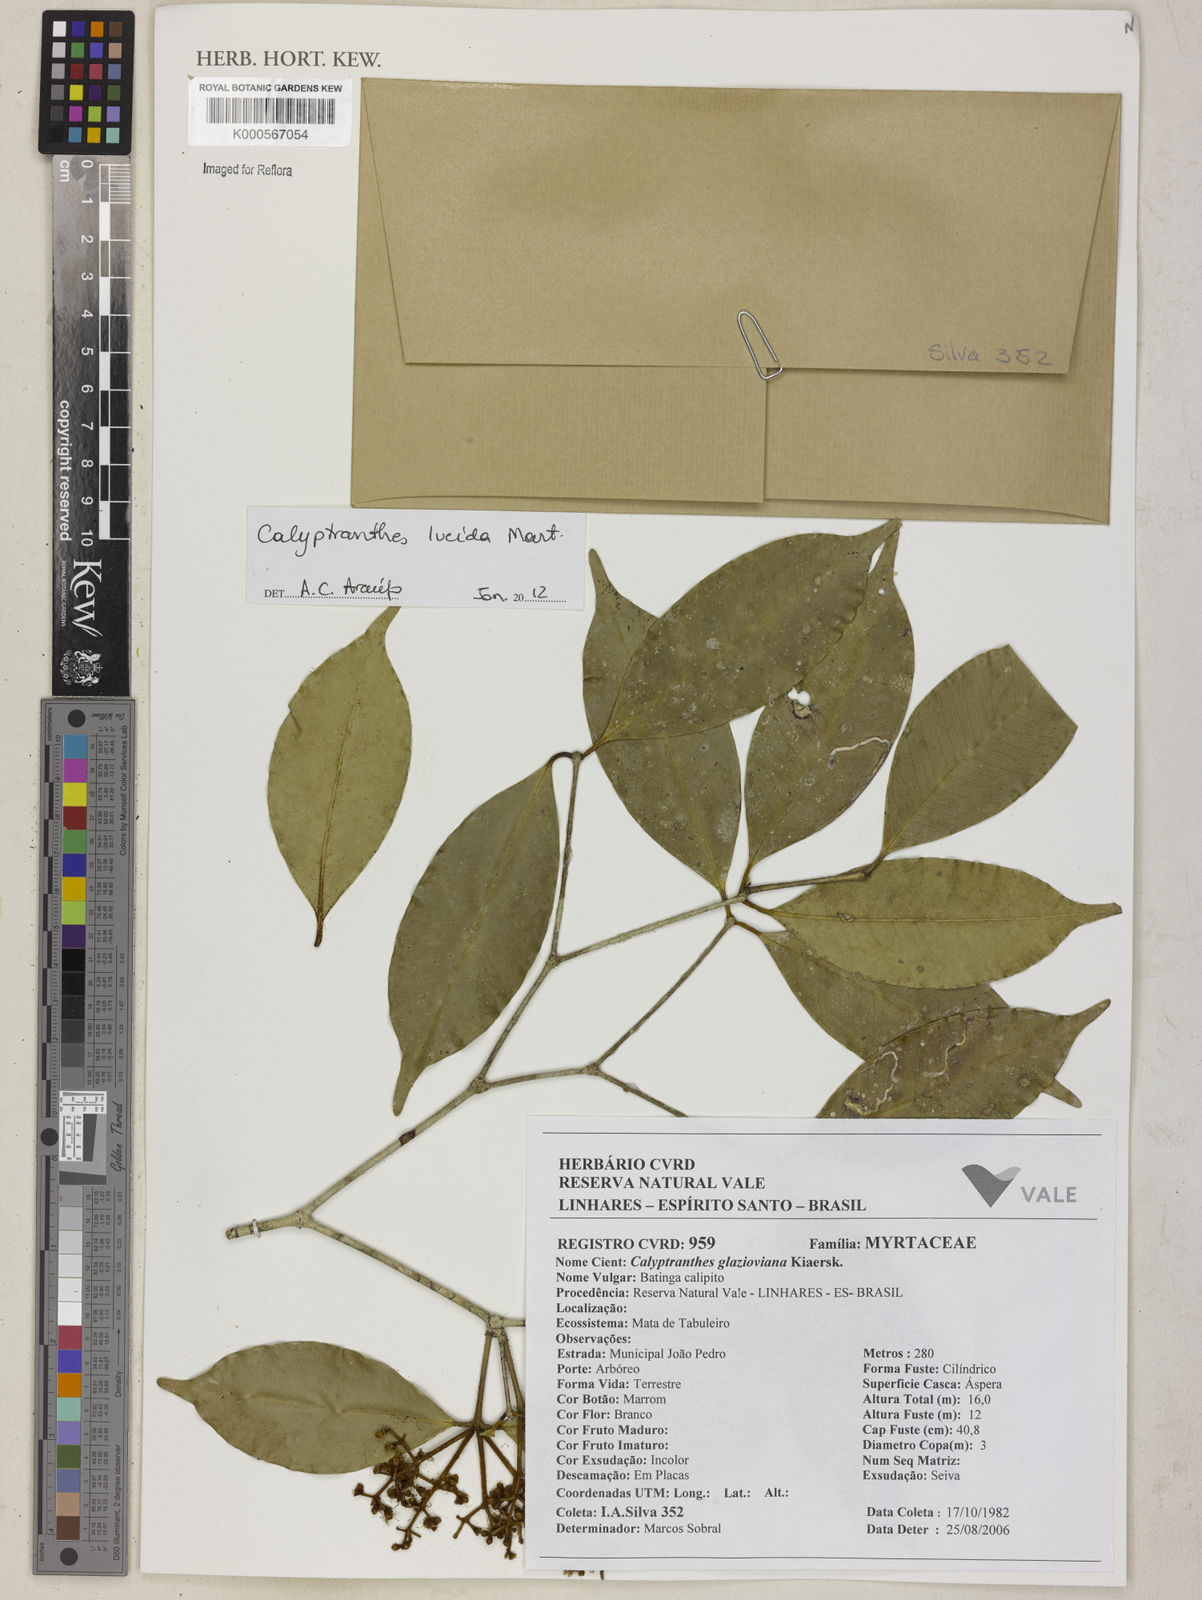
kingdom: Plantae
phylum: Tracheophyta
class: Magnoliopsida
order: Myrtales
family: Myrtaceae
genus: Myrcia
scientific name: Myrcia lepida
